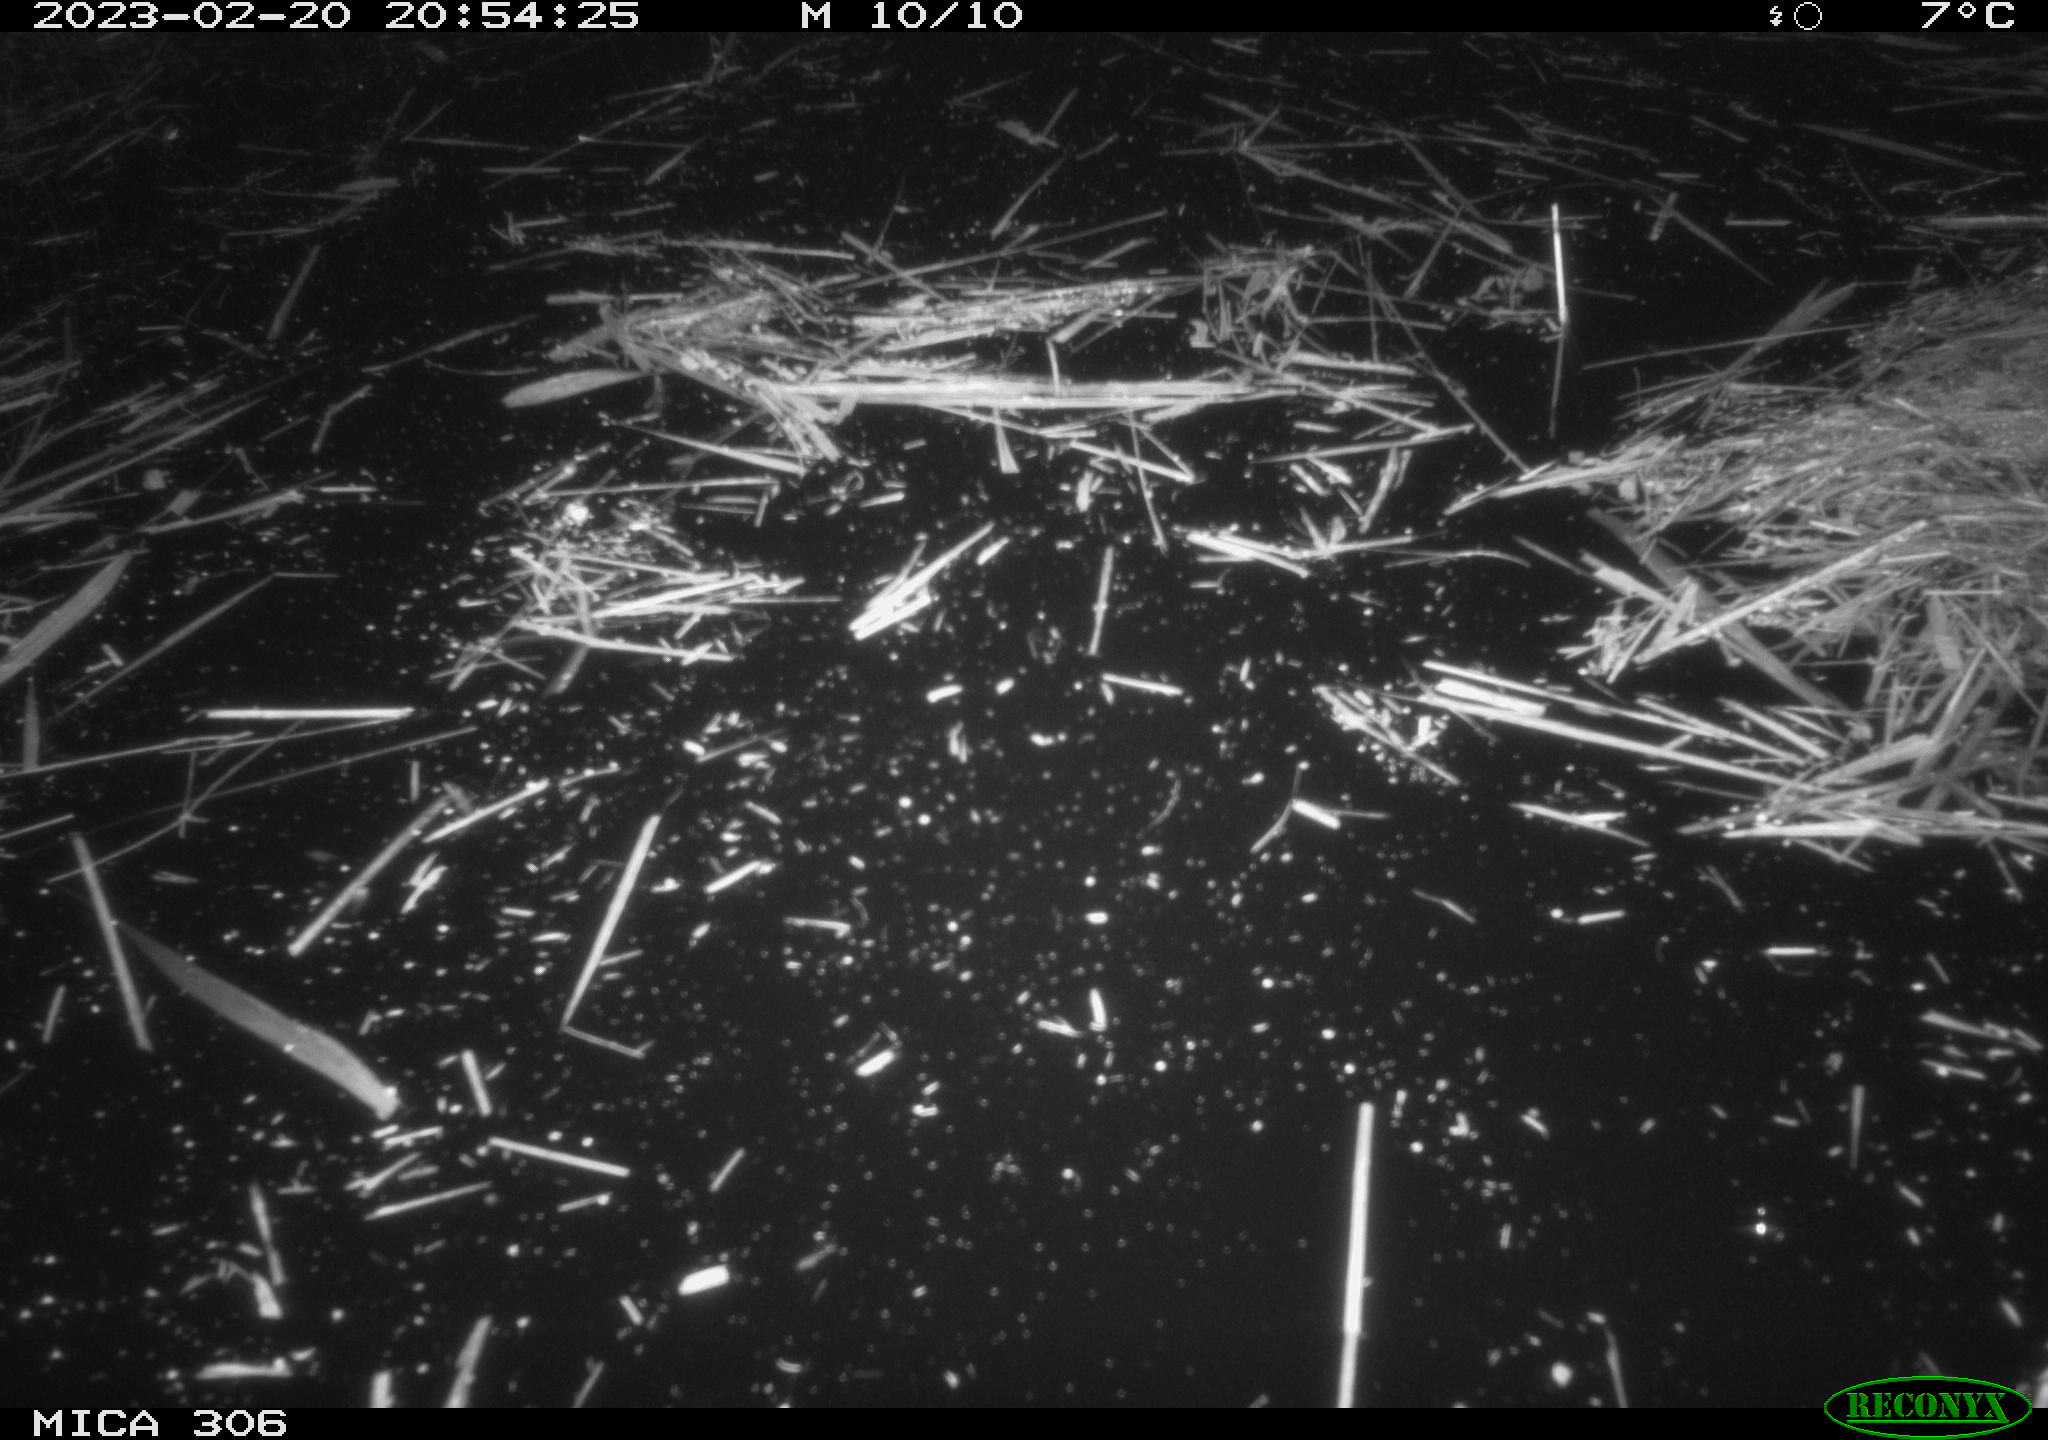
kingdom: Animalia
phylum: Chordata
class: Mammalia
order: Rodentia
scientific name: Rodentia
